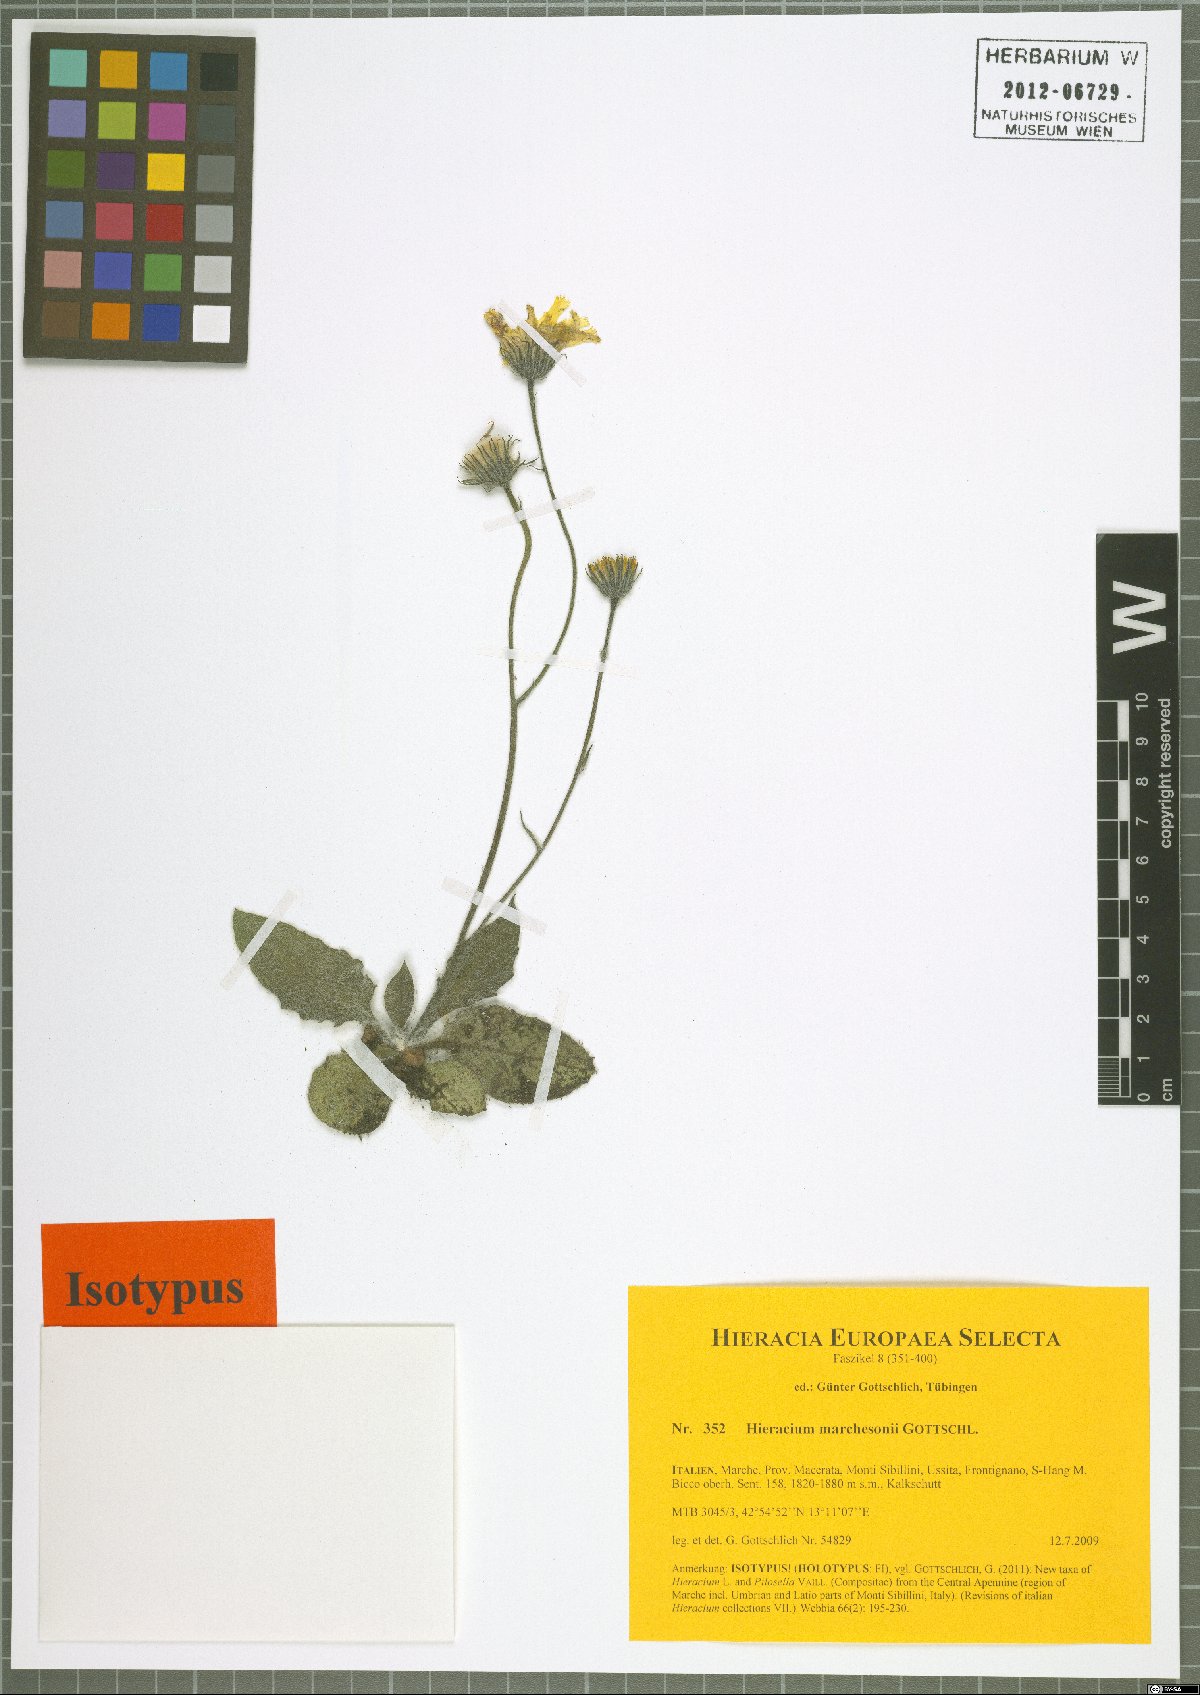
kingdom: Plantae
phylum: Tracheophyta
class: Magnoliopsida
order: Asterales
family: Asteraceae
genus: Hieracium
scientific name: Hieracium marchesonii
